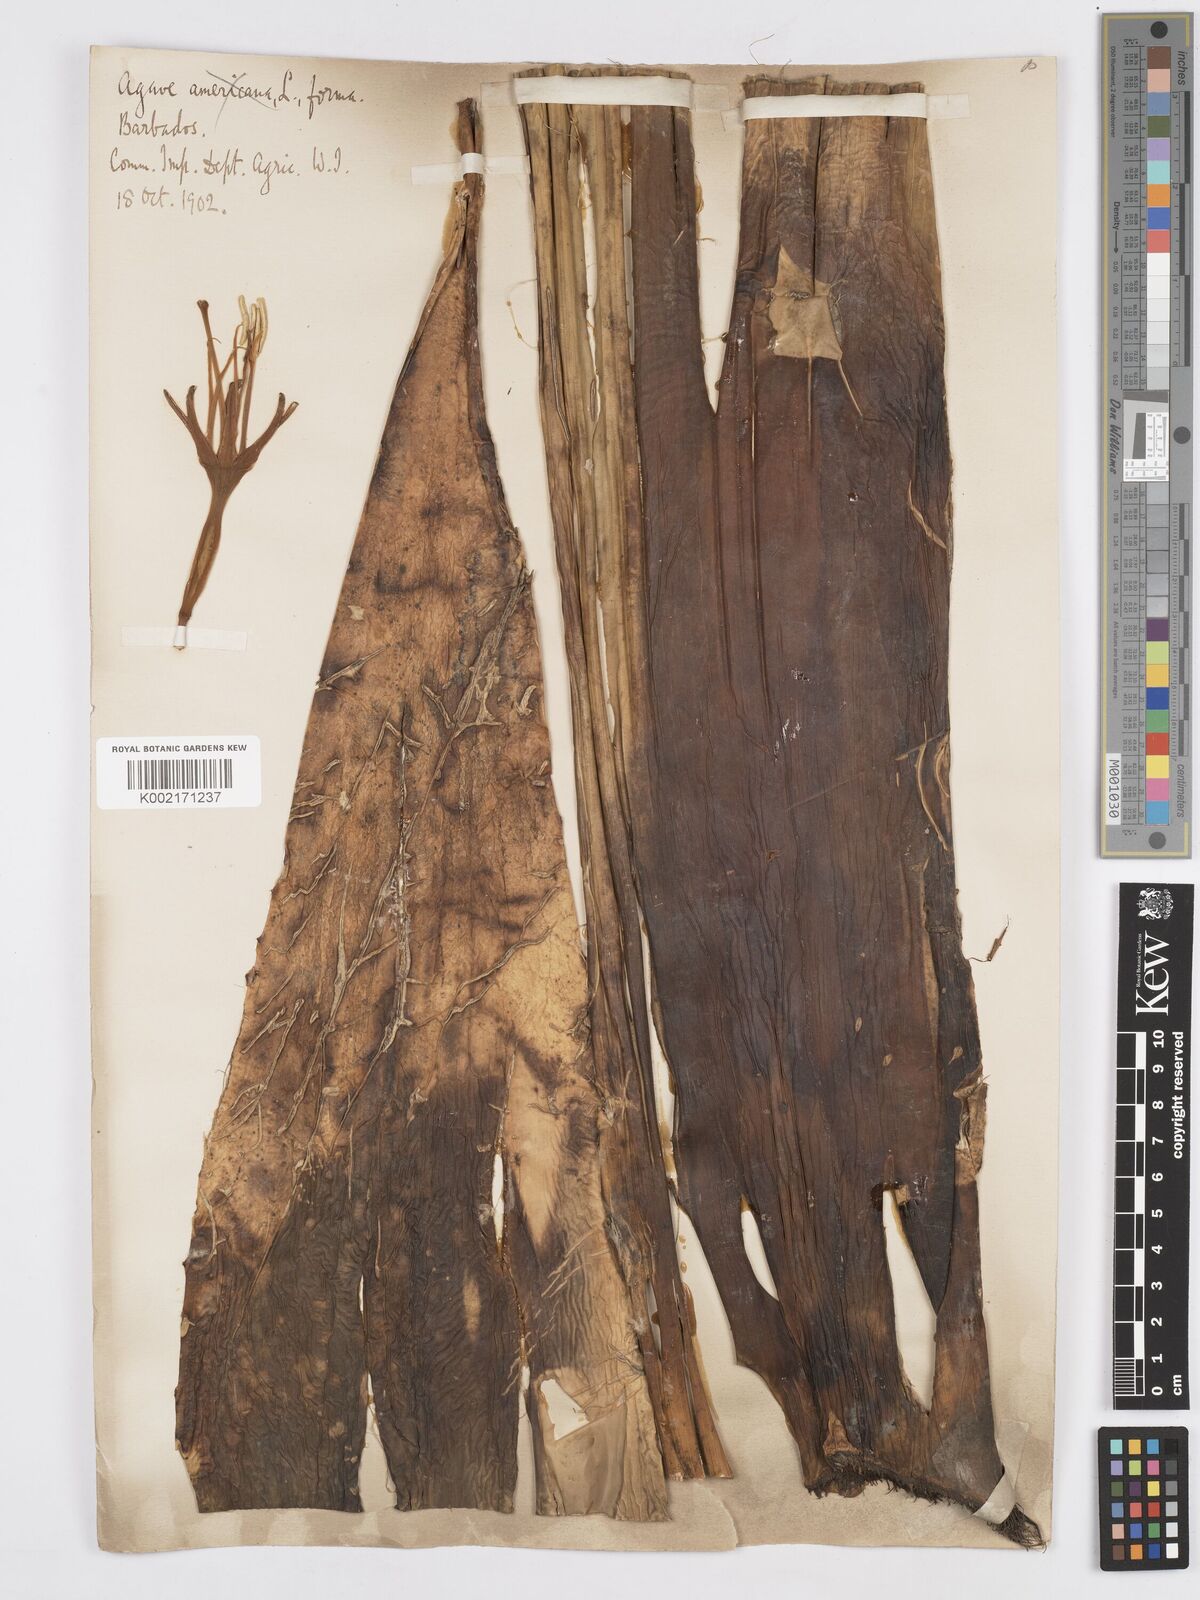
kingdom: Plantae
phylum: Tracheophyta
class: Liliopsida
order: Asparagales
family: Asparagaceae
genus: Agave
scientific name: Agave
